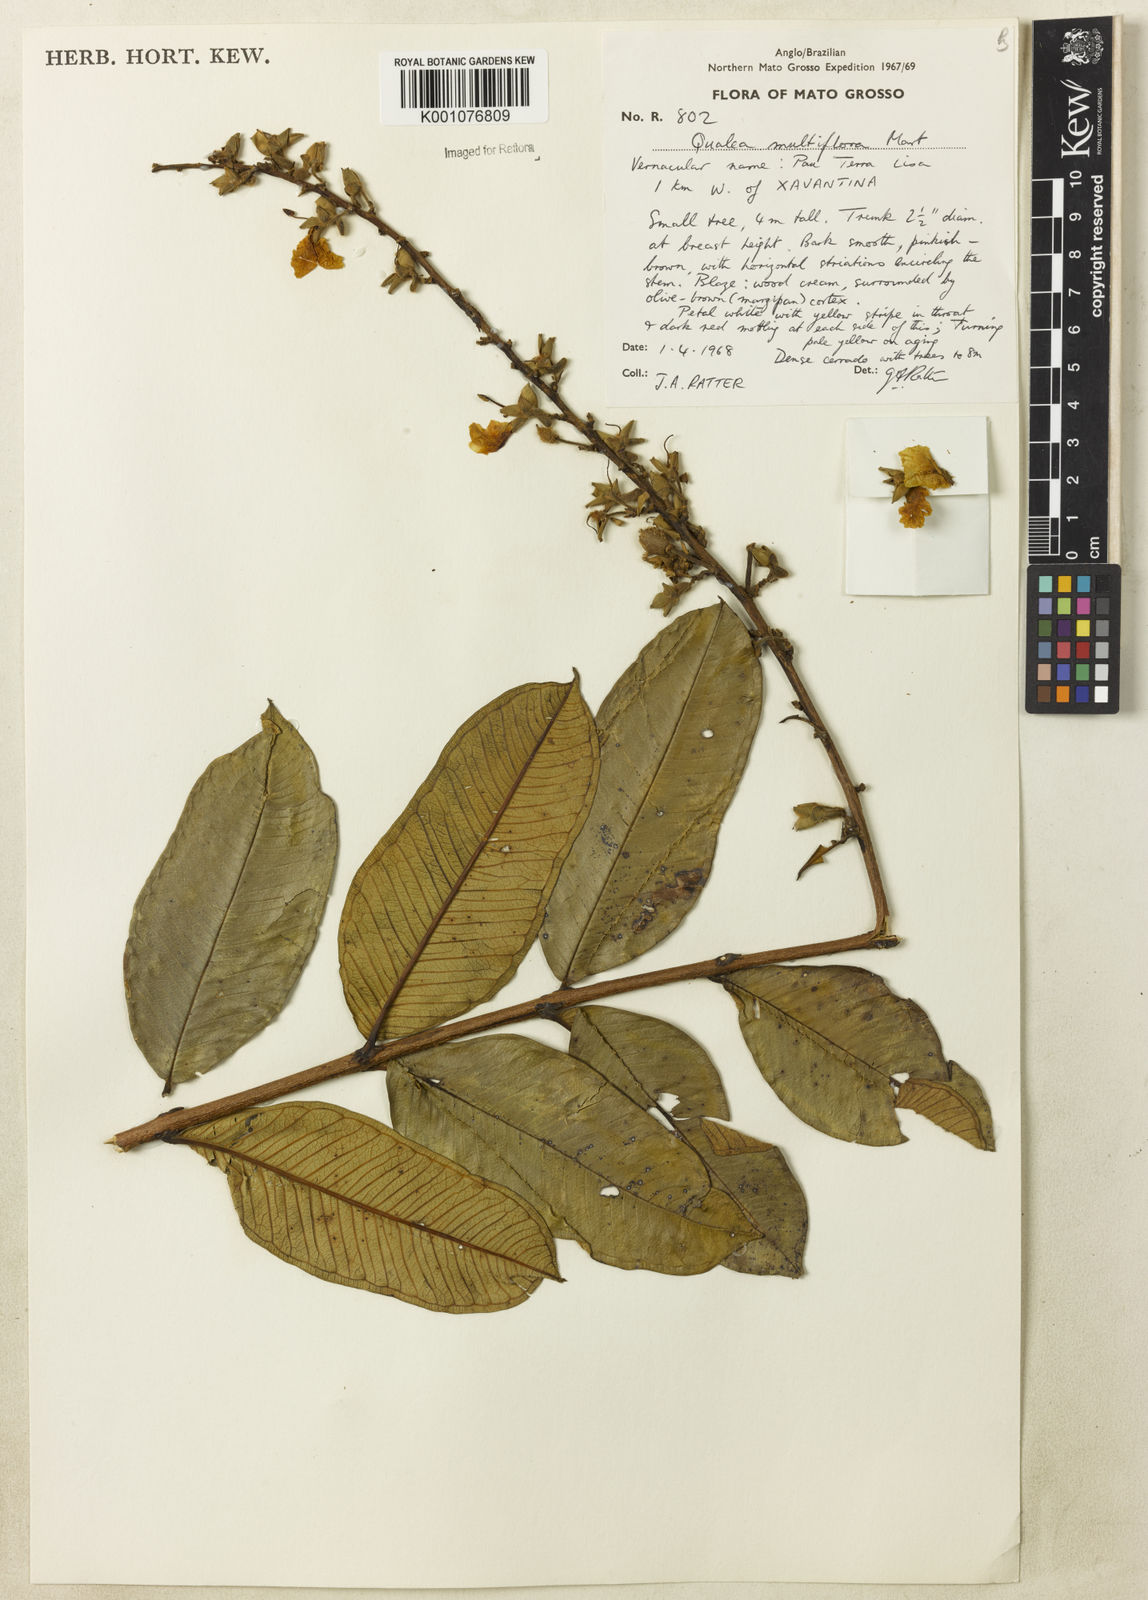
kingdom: Plantae
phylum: Tracheophyta
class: Magnoliopsida
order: Myrtales
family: Vochysiaceae
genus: Qualea
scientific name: Qualea multiflora
